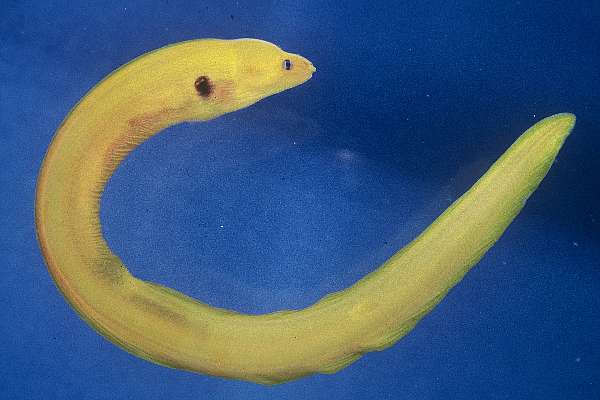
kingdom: Animalia
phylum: Chordata
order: Anguilliformes
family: Muraenidae
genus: Gymnothorax
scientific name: Gymnothorax melatremus
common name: Dwarf moray
